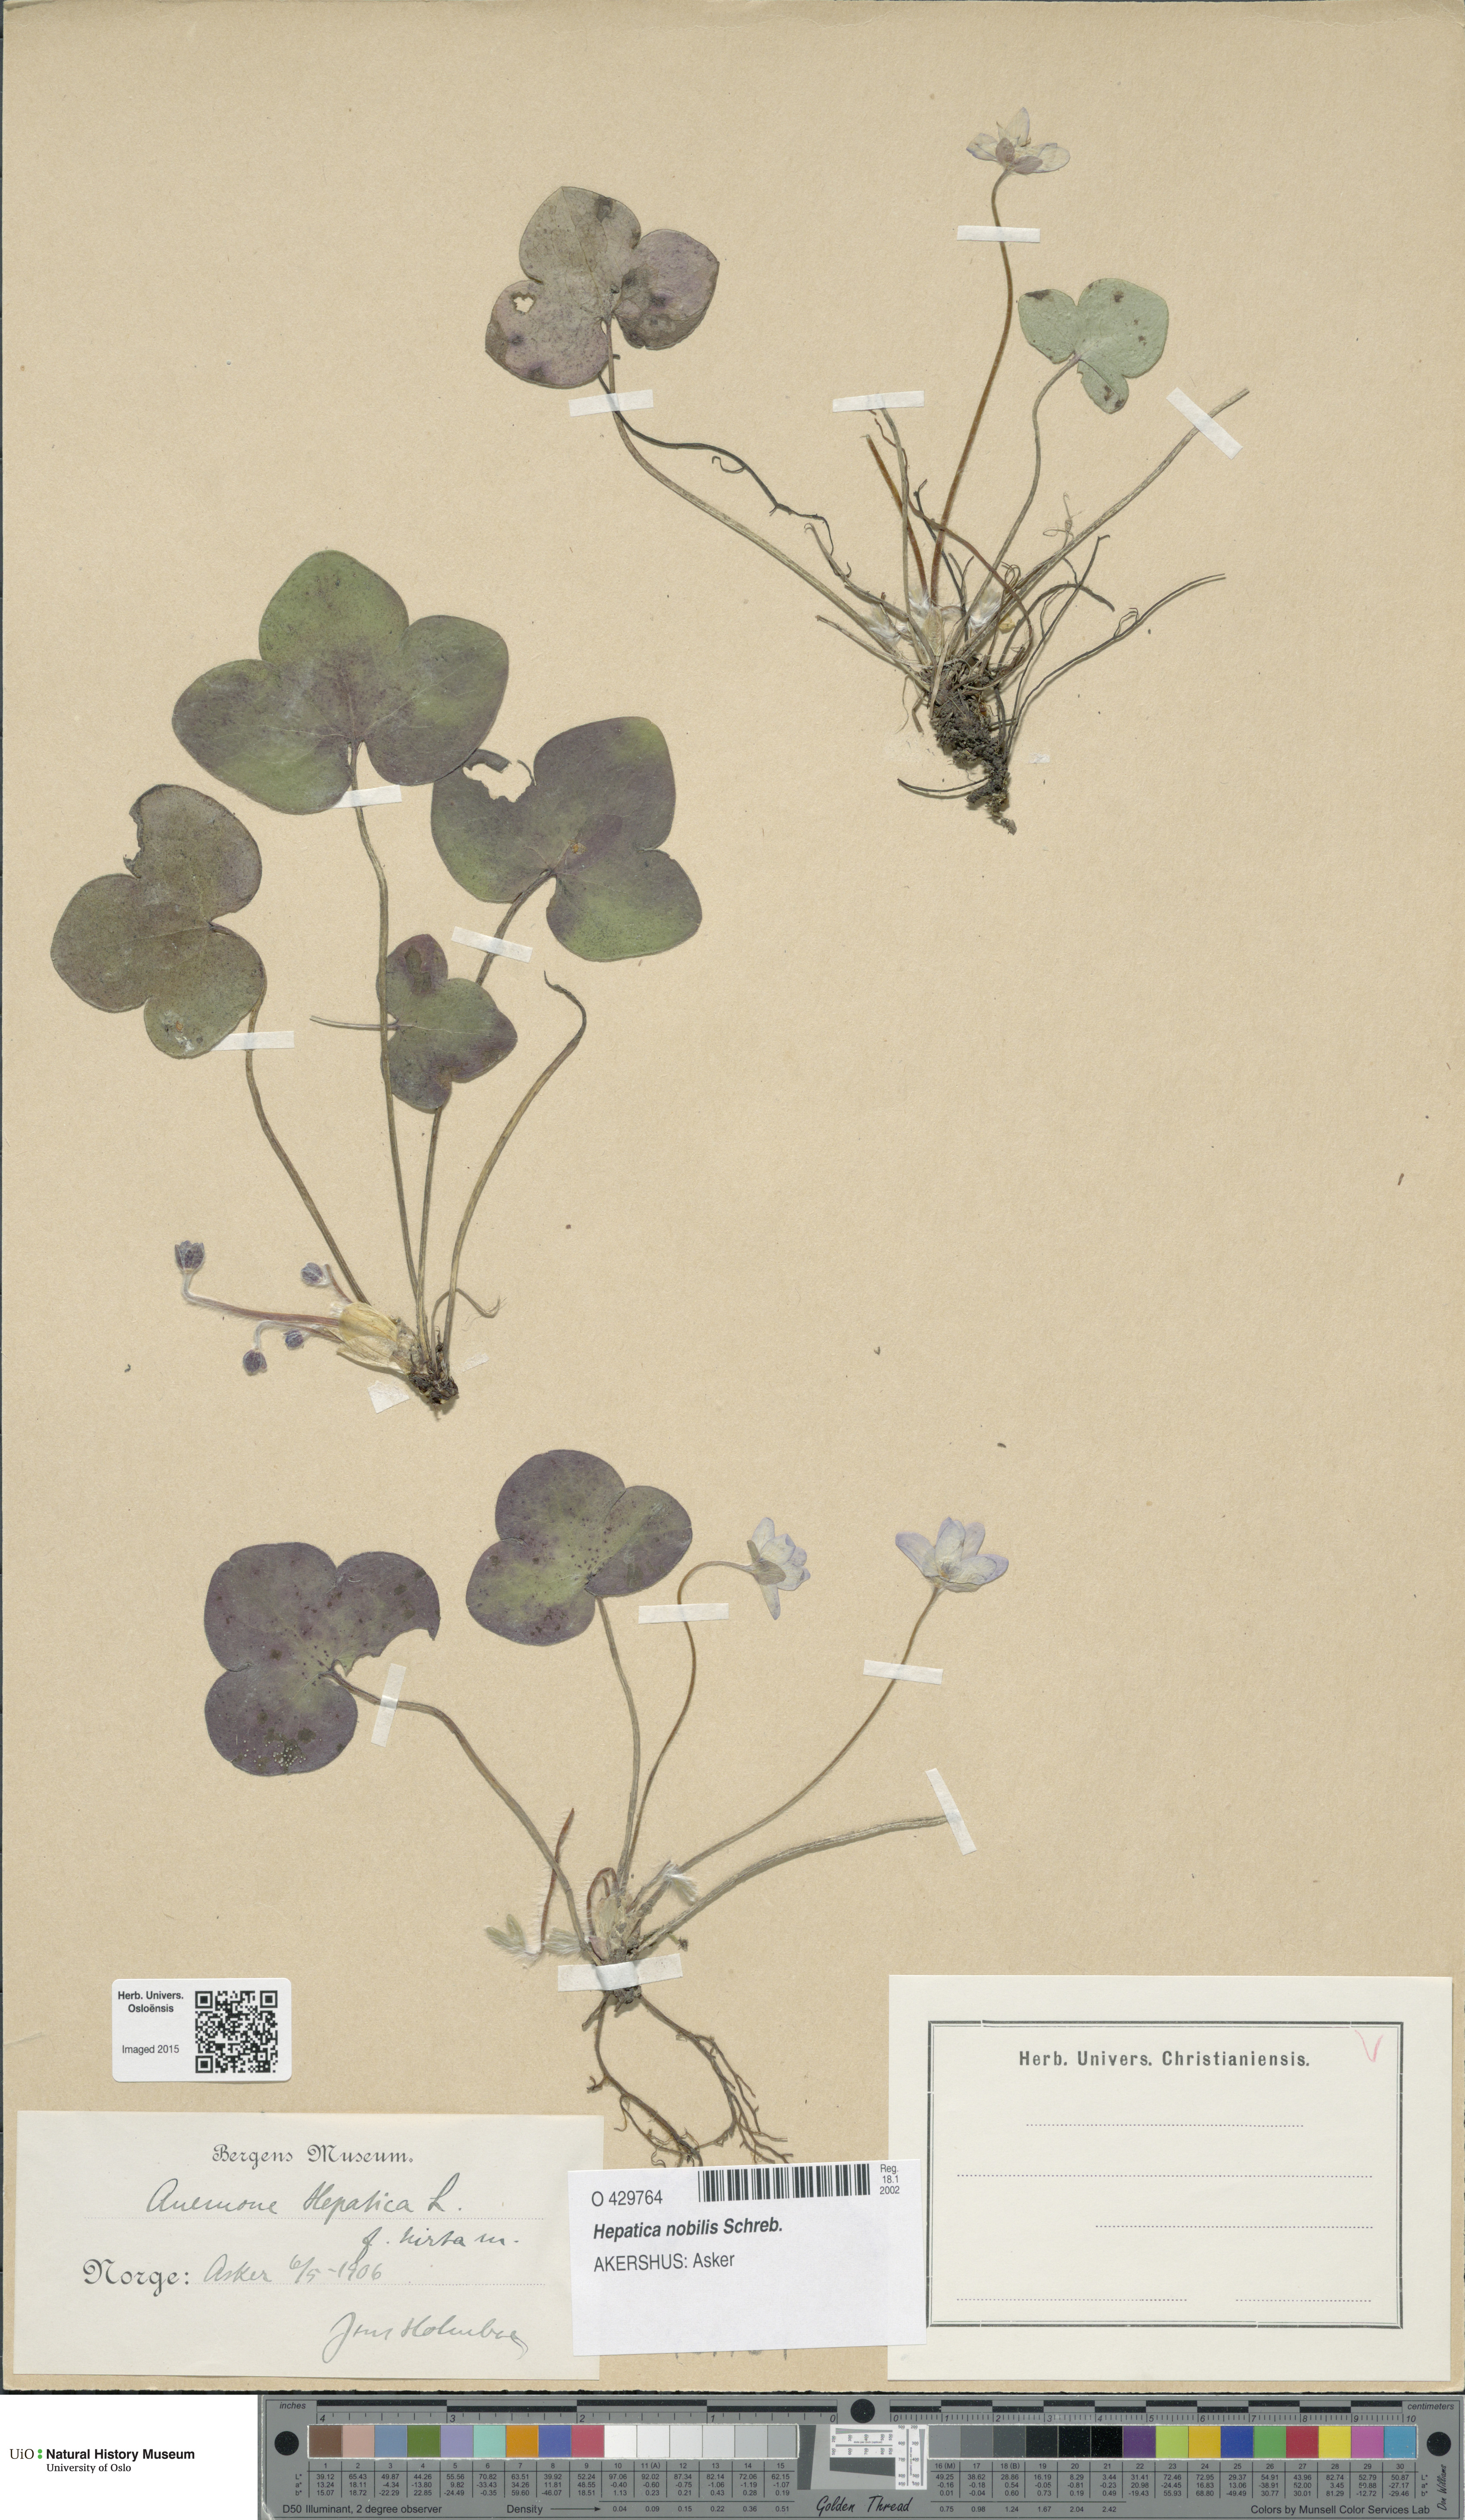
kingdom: Plantae
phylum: Tracheophyta
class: Magnoliopsida
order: Ranunculales
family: Ranunculaceae
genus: Hepatica
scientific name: Hepatica nobilis
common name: Liverleaf
